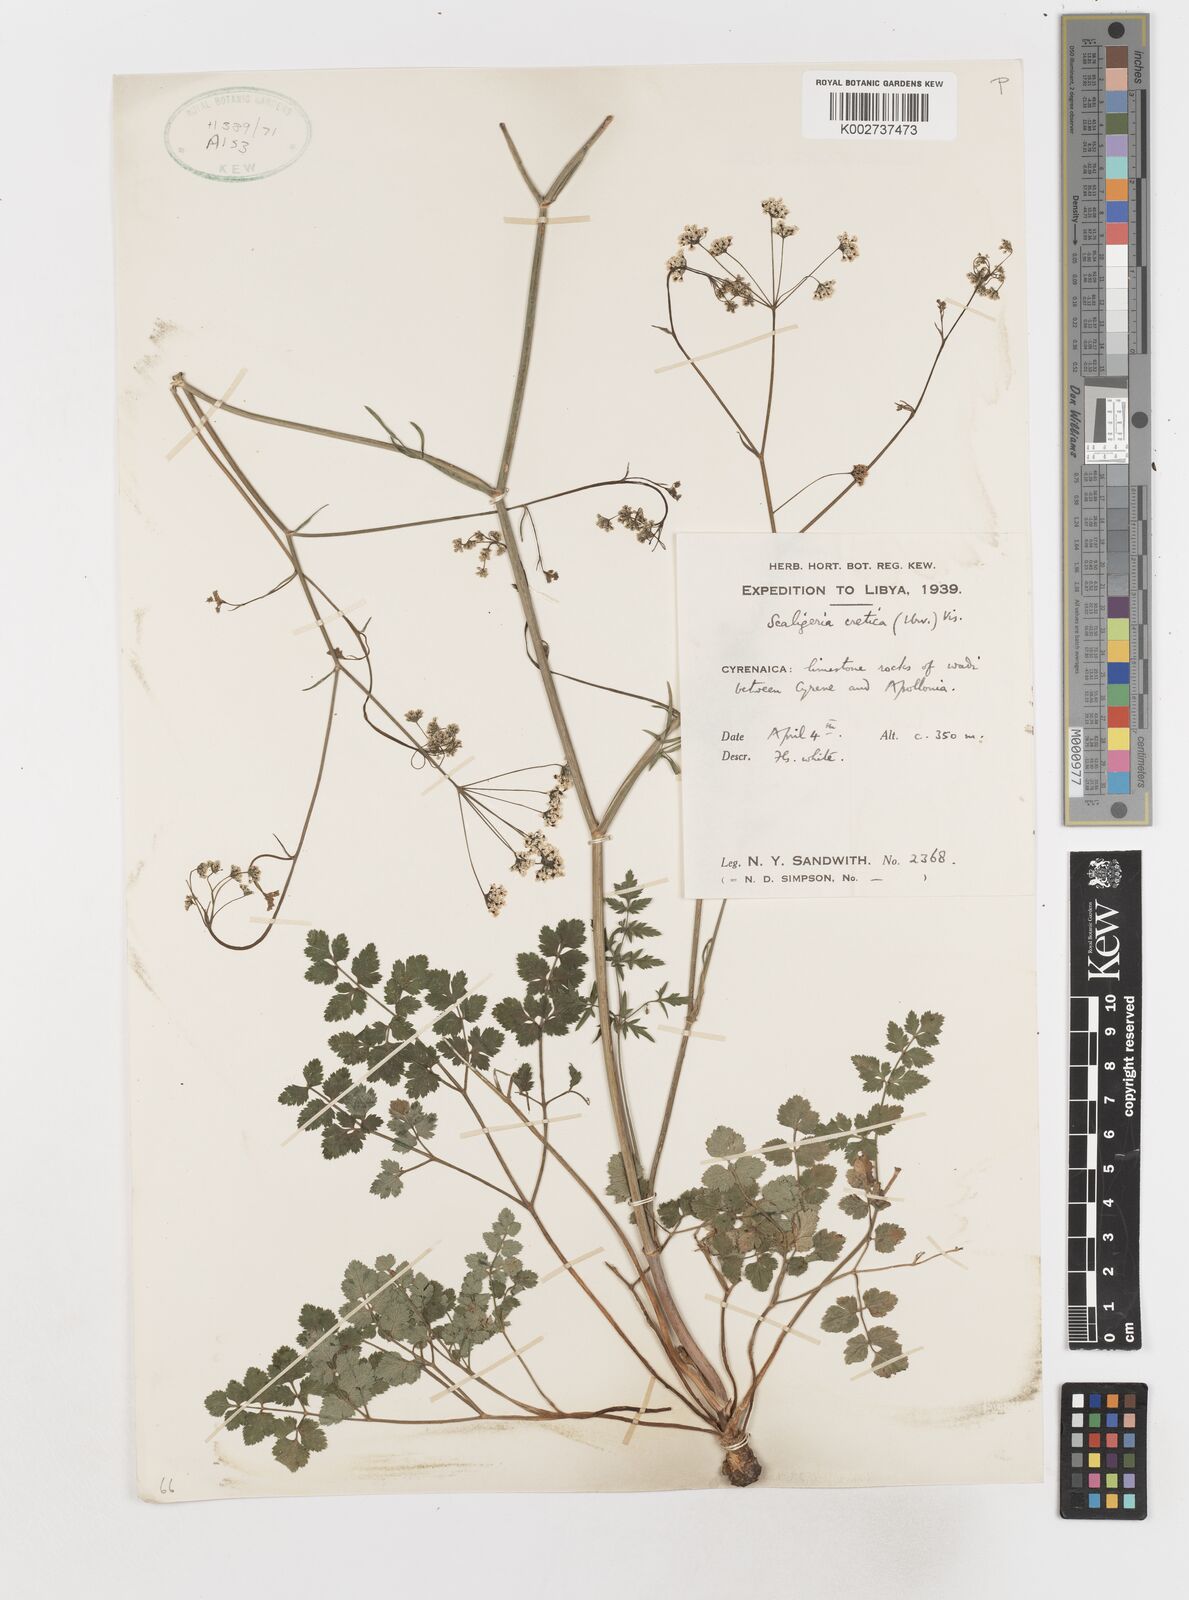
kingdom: Plantae
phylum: Tracheophyta
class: Magnoliopsida
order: Apiales
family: Apiaceae
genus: Scaligeria
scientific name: Scaligeria napiformis
